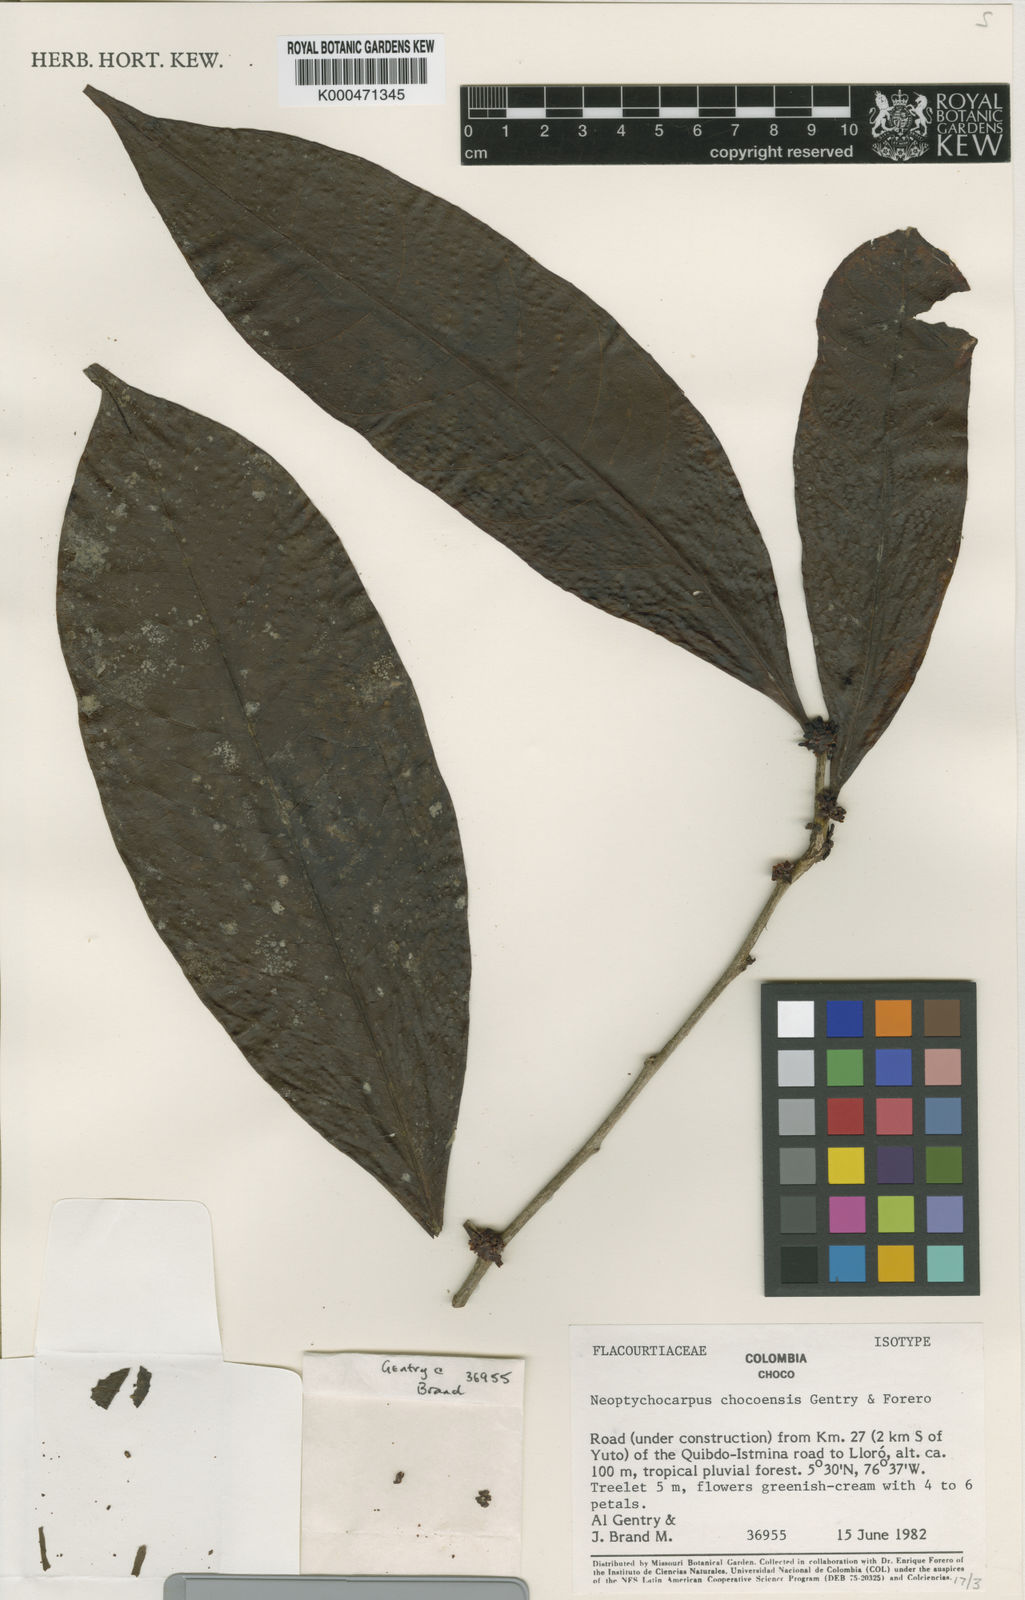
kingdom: Plantae
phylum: Tracheophyta
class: Magnoliopsida
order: Malpighiales
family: Salicaceae
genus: Casearia
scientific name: Casearia chocoensis
